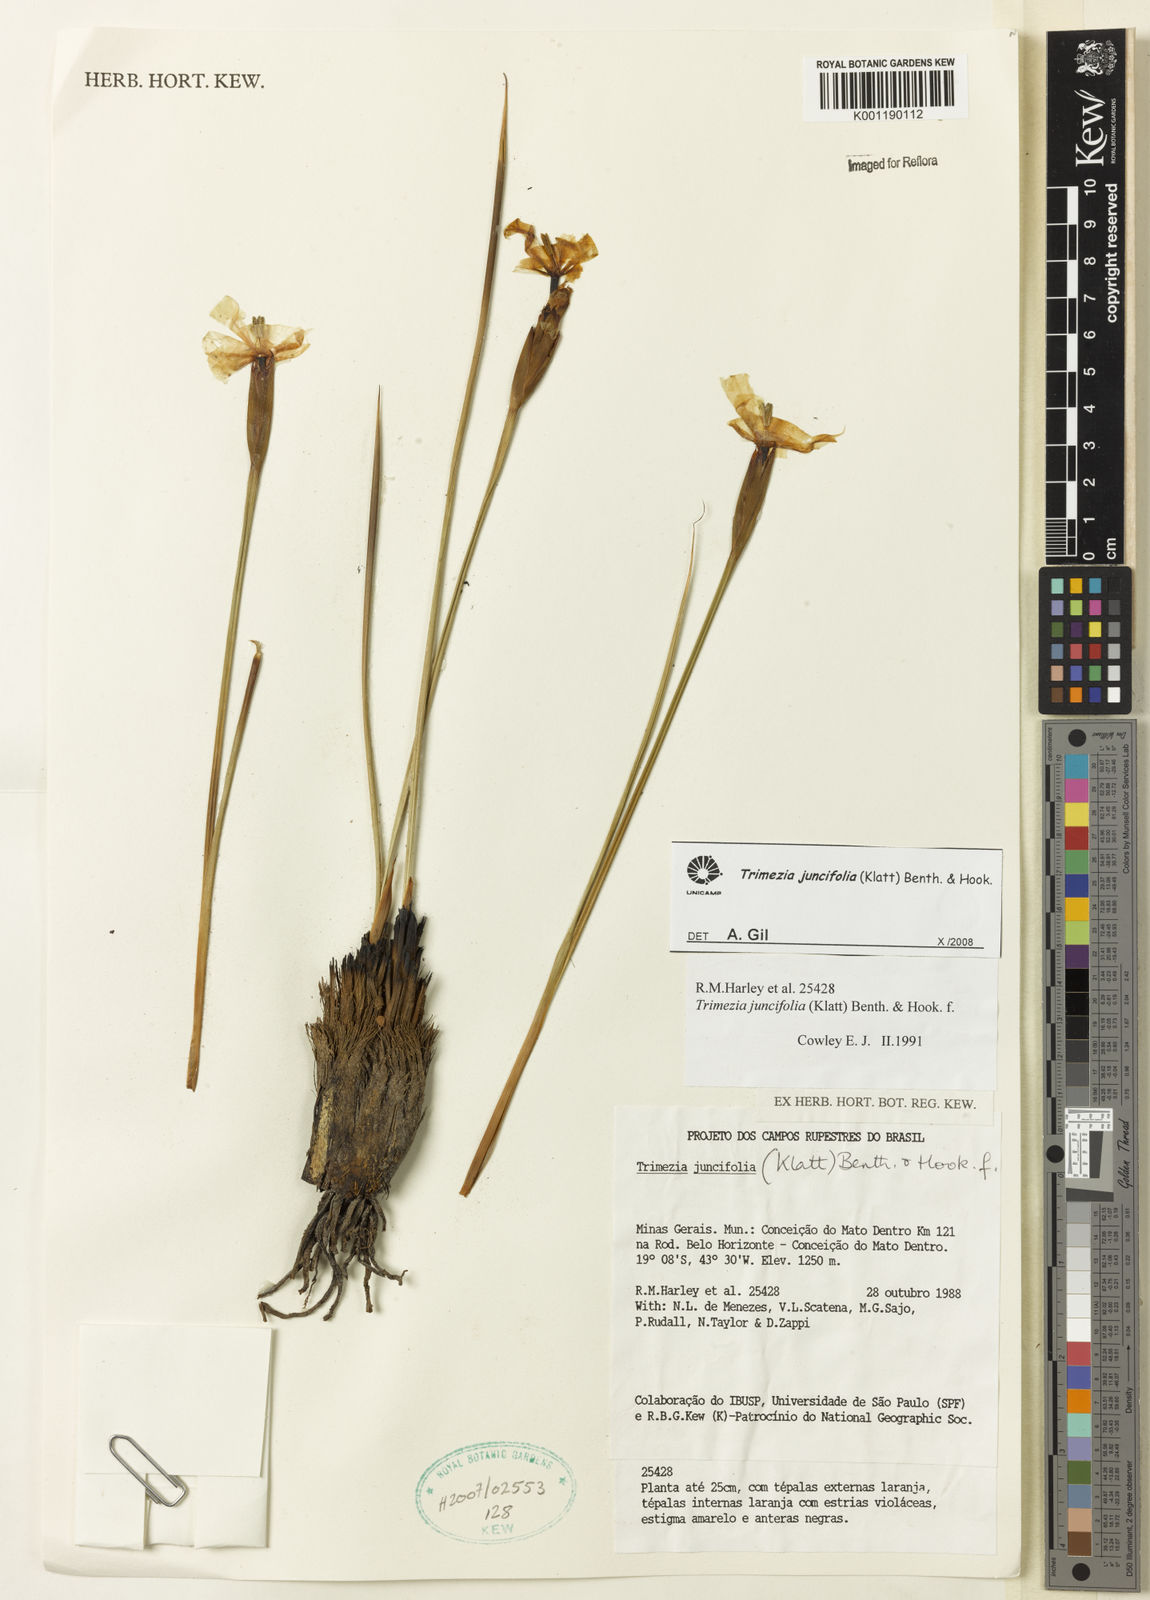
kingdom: Plantae
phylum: Tracheophyta
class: Liliopsida
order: Asparagales
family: Iridaceae
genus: Trimezia
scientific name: Trimezia juncifolia
